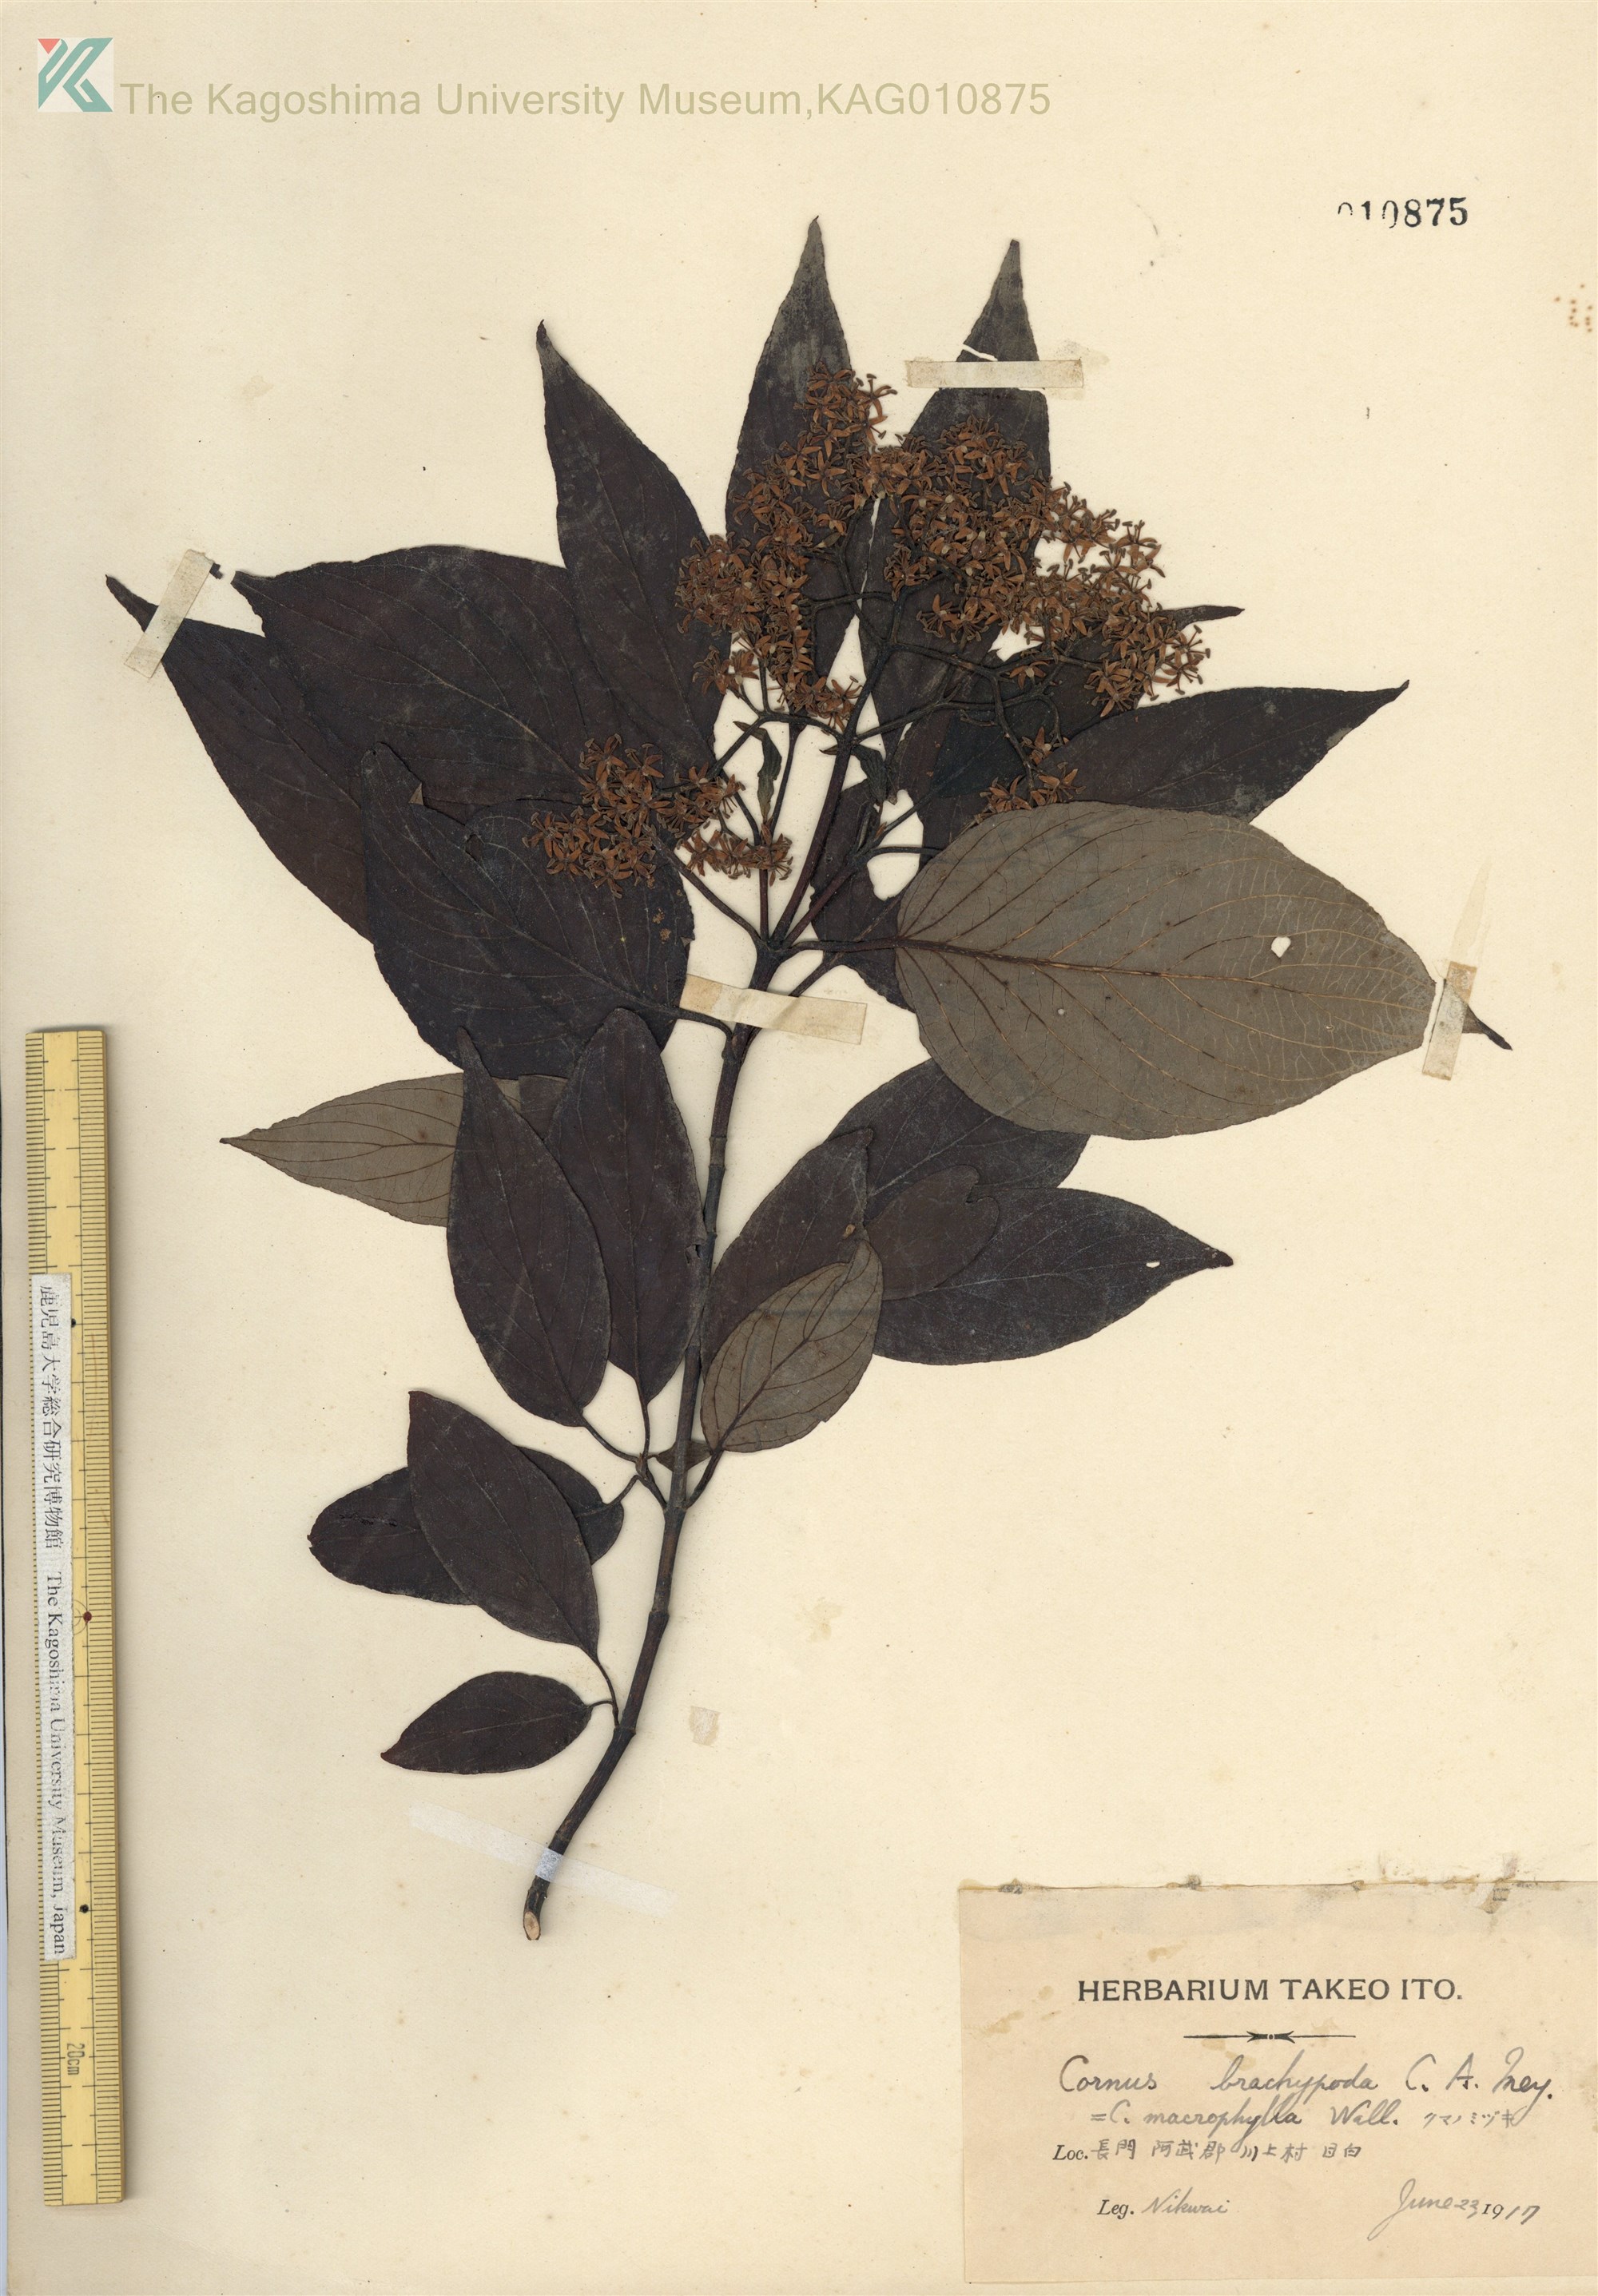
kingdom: Plantae
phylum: Tracheophyta
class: Magnoliopsida
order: Cornales
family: Cornaceae
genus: Cornus
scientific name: Cornus macrophylla
